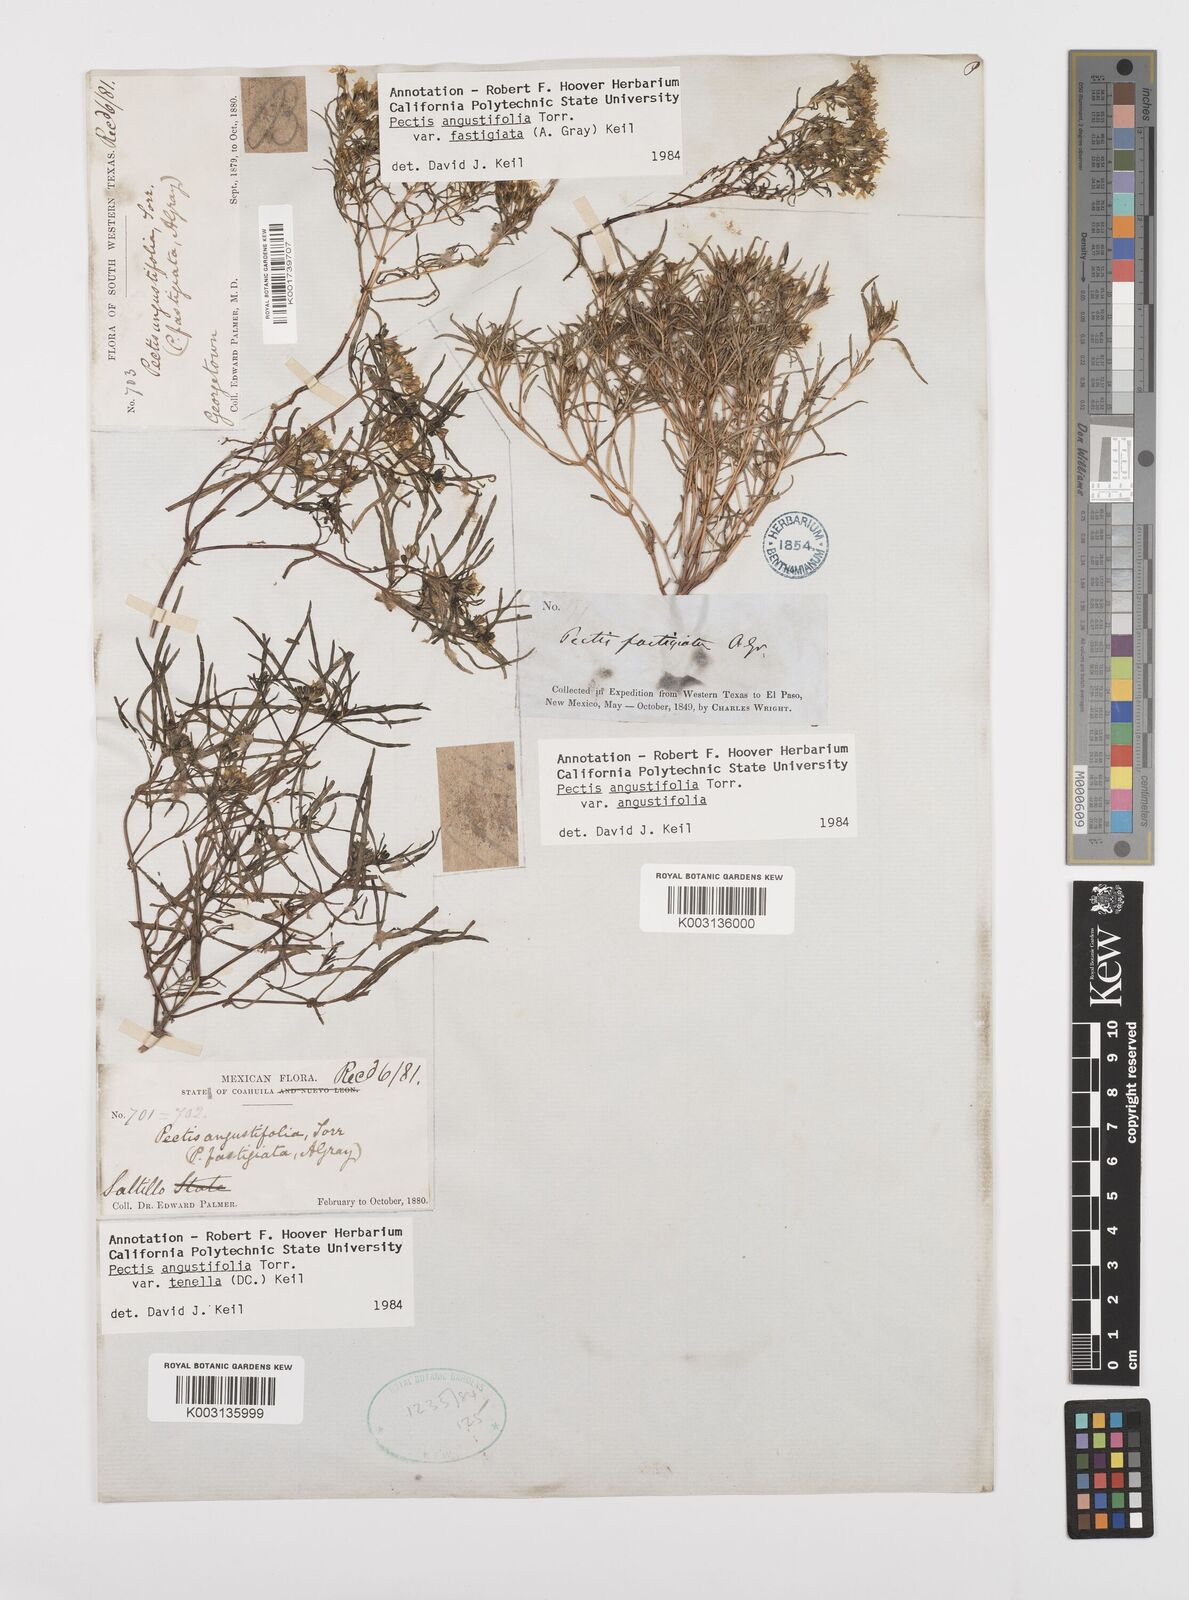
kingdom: Plantae
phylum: Tracheophyta
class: Magnoliopsida
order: Asterales
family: Asteraceae
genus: Pectis
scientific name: Pectis angustifolia
